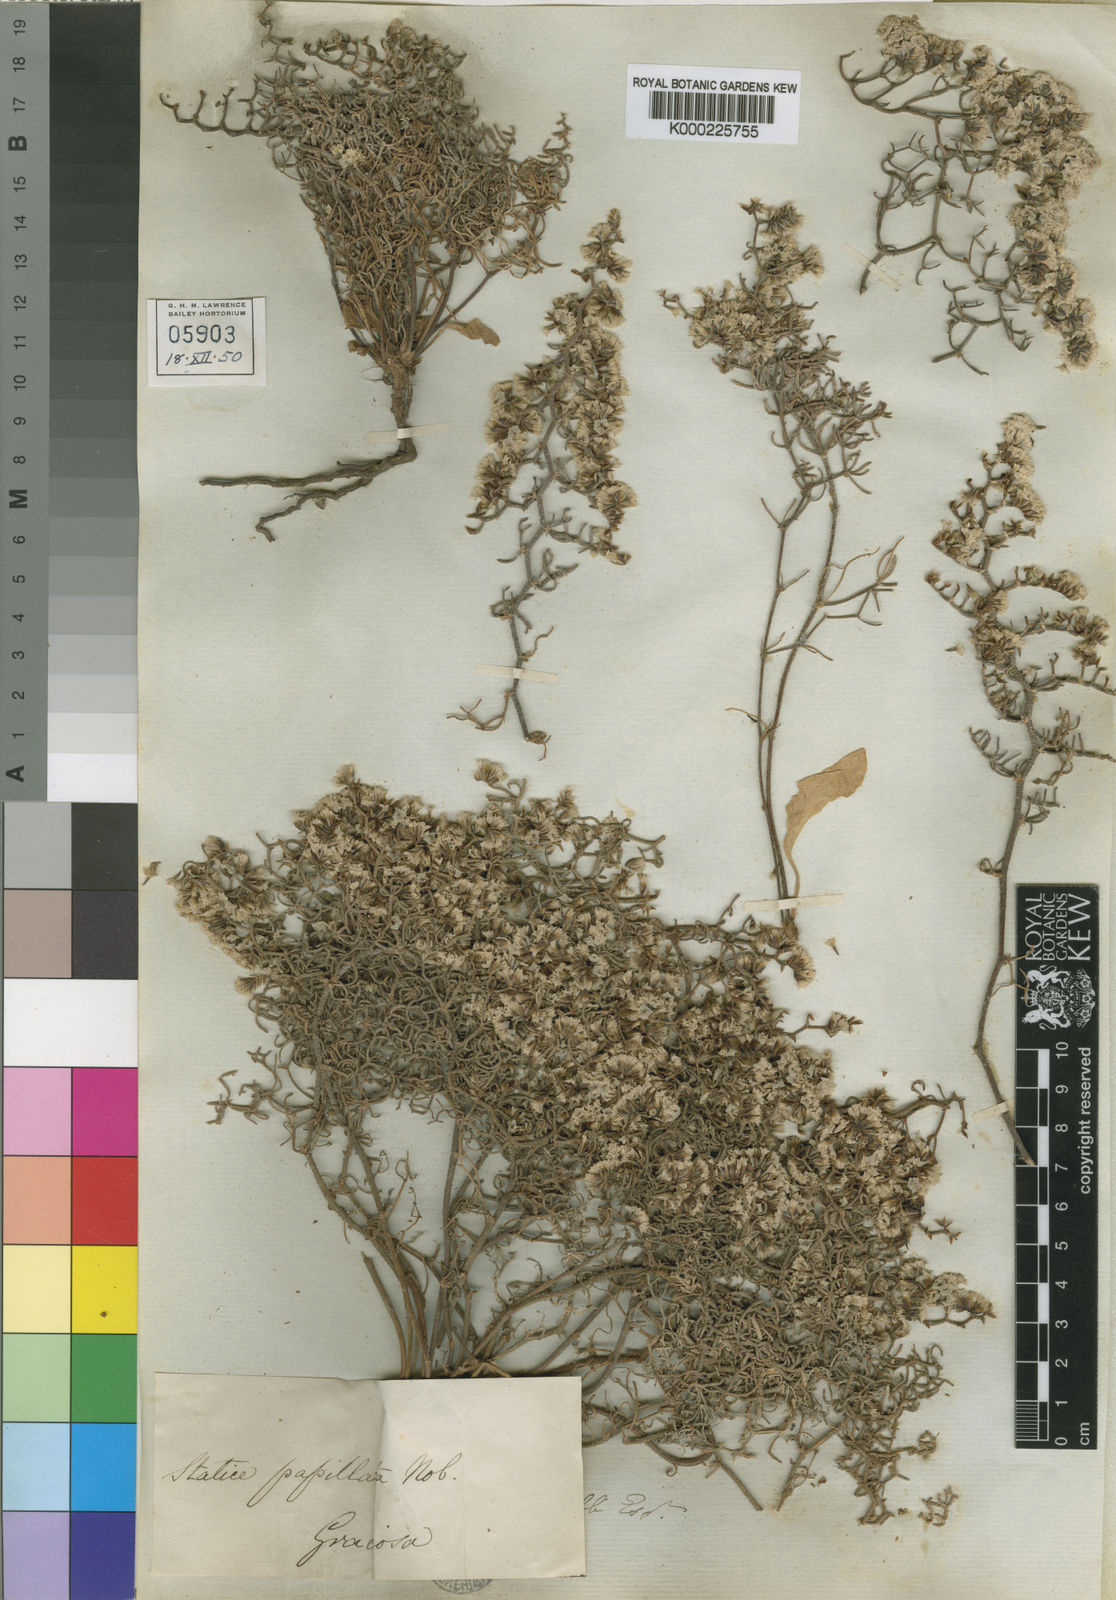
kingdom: Plantae
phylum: Tracheophyta
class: Magnoliopsida
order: Caryophyllales
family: Plumbaginaceae
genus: Limonium
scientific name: Limonium papillatum
